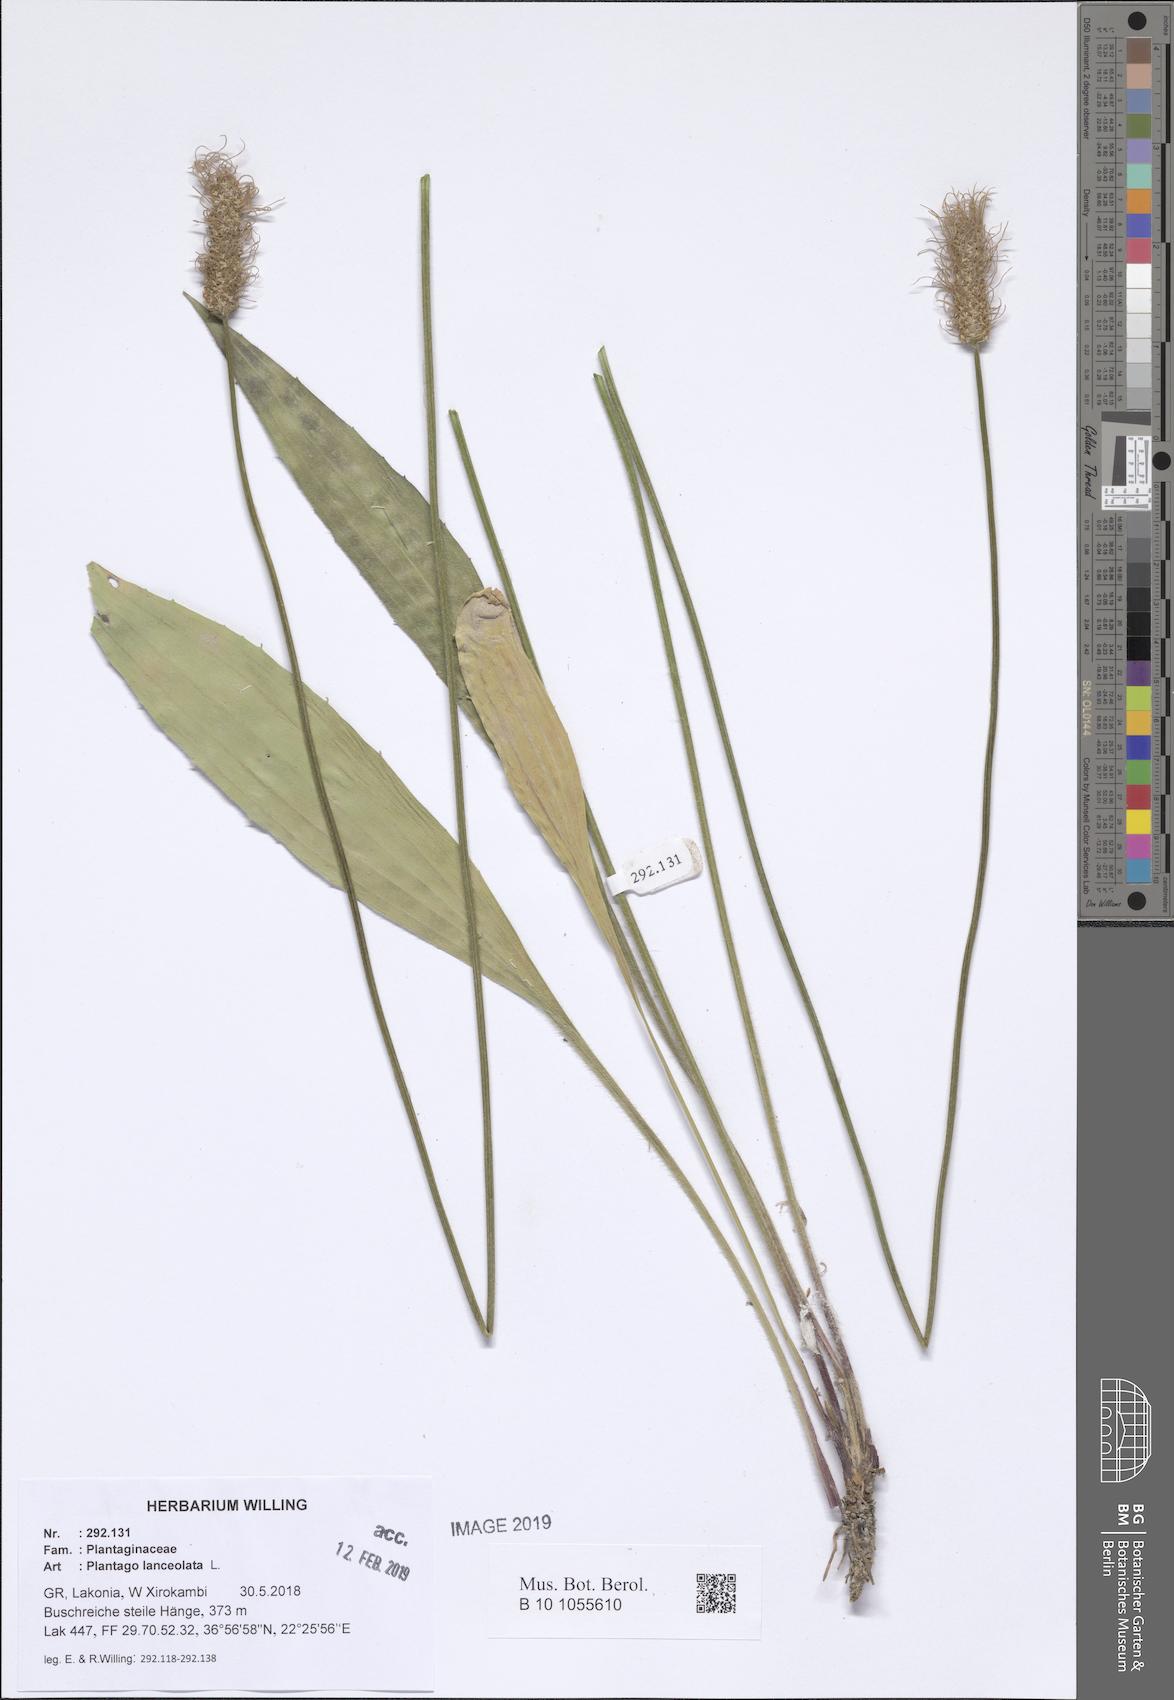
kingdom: Plantae
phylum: Tracheophyta
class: Magnoliopsida
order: Lamiales
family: Plantaginaceae
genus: Plantago
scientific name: Plantago lanceolata
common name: Ribwort plantain
